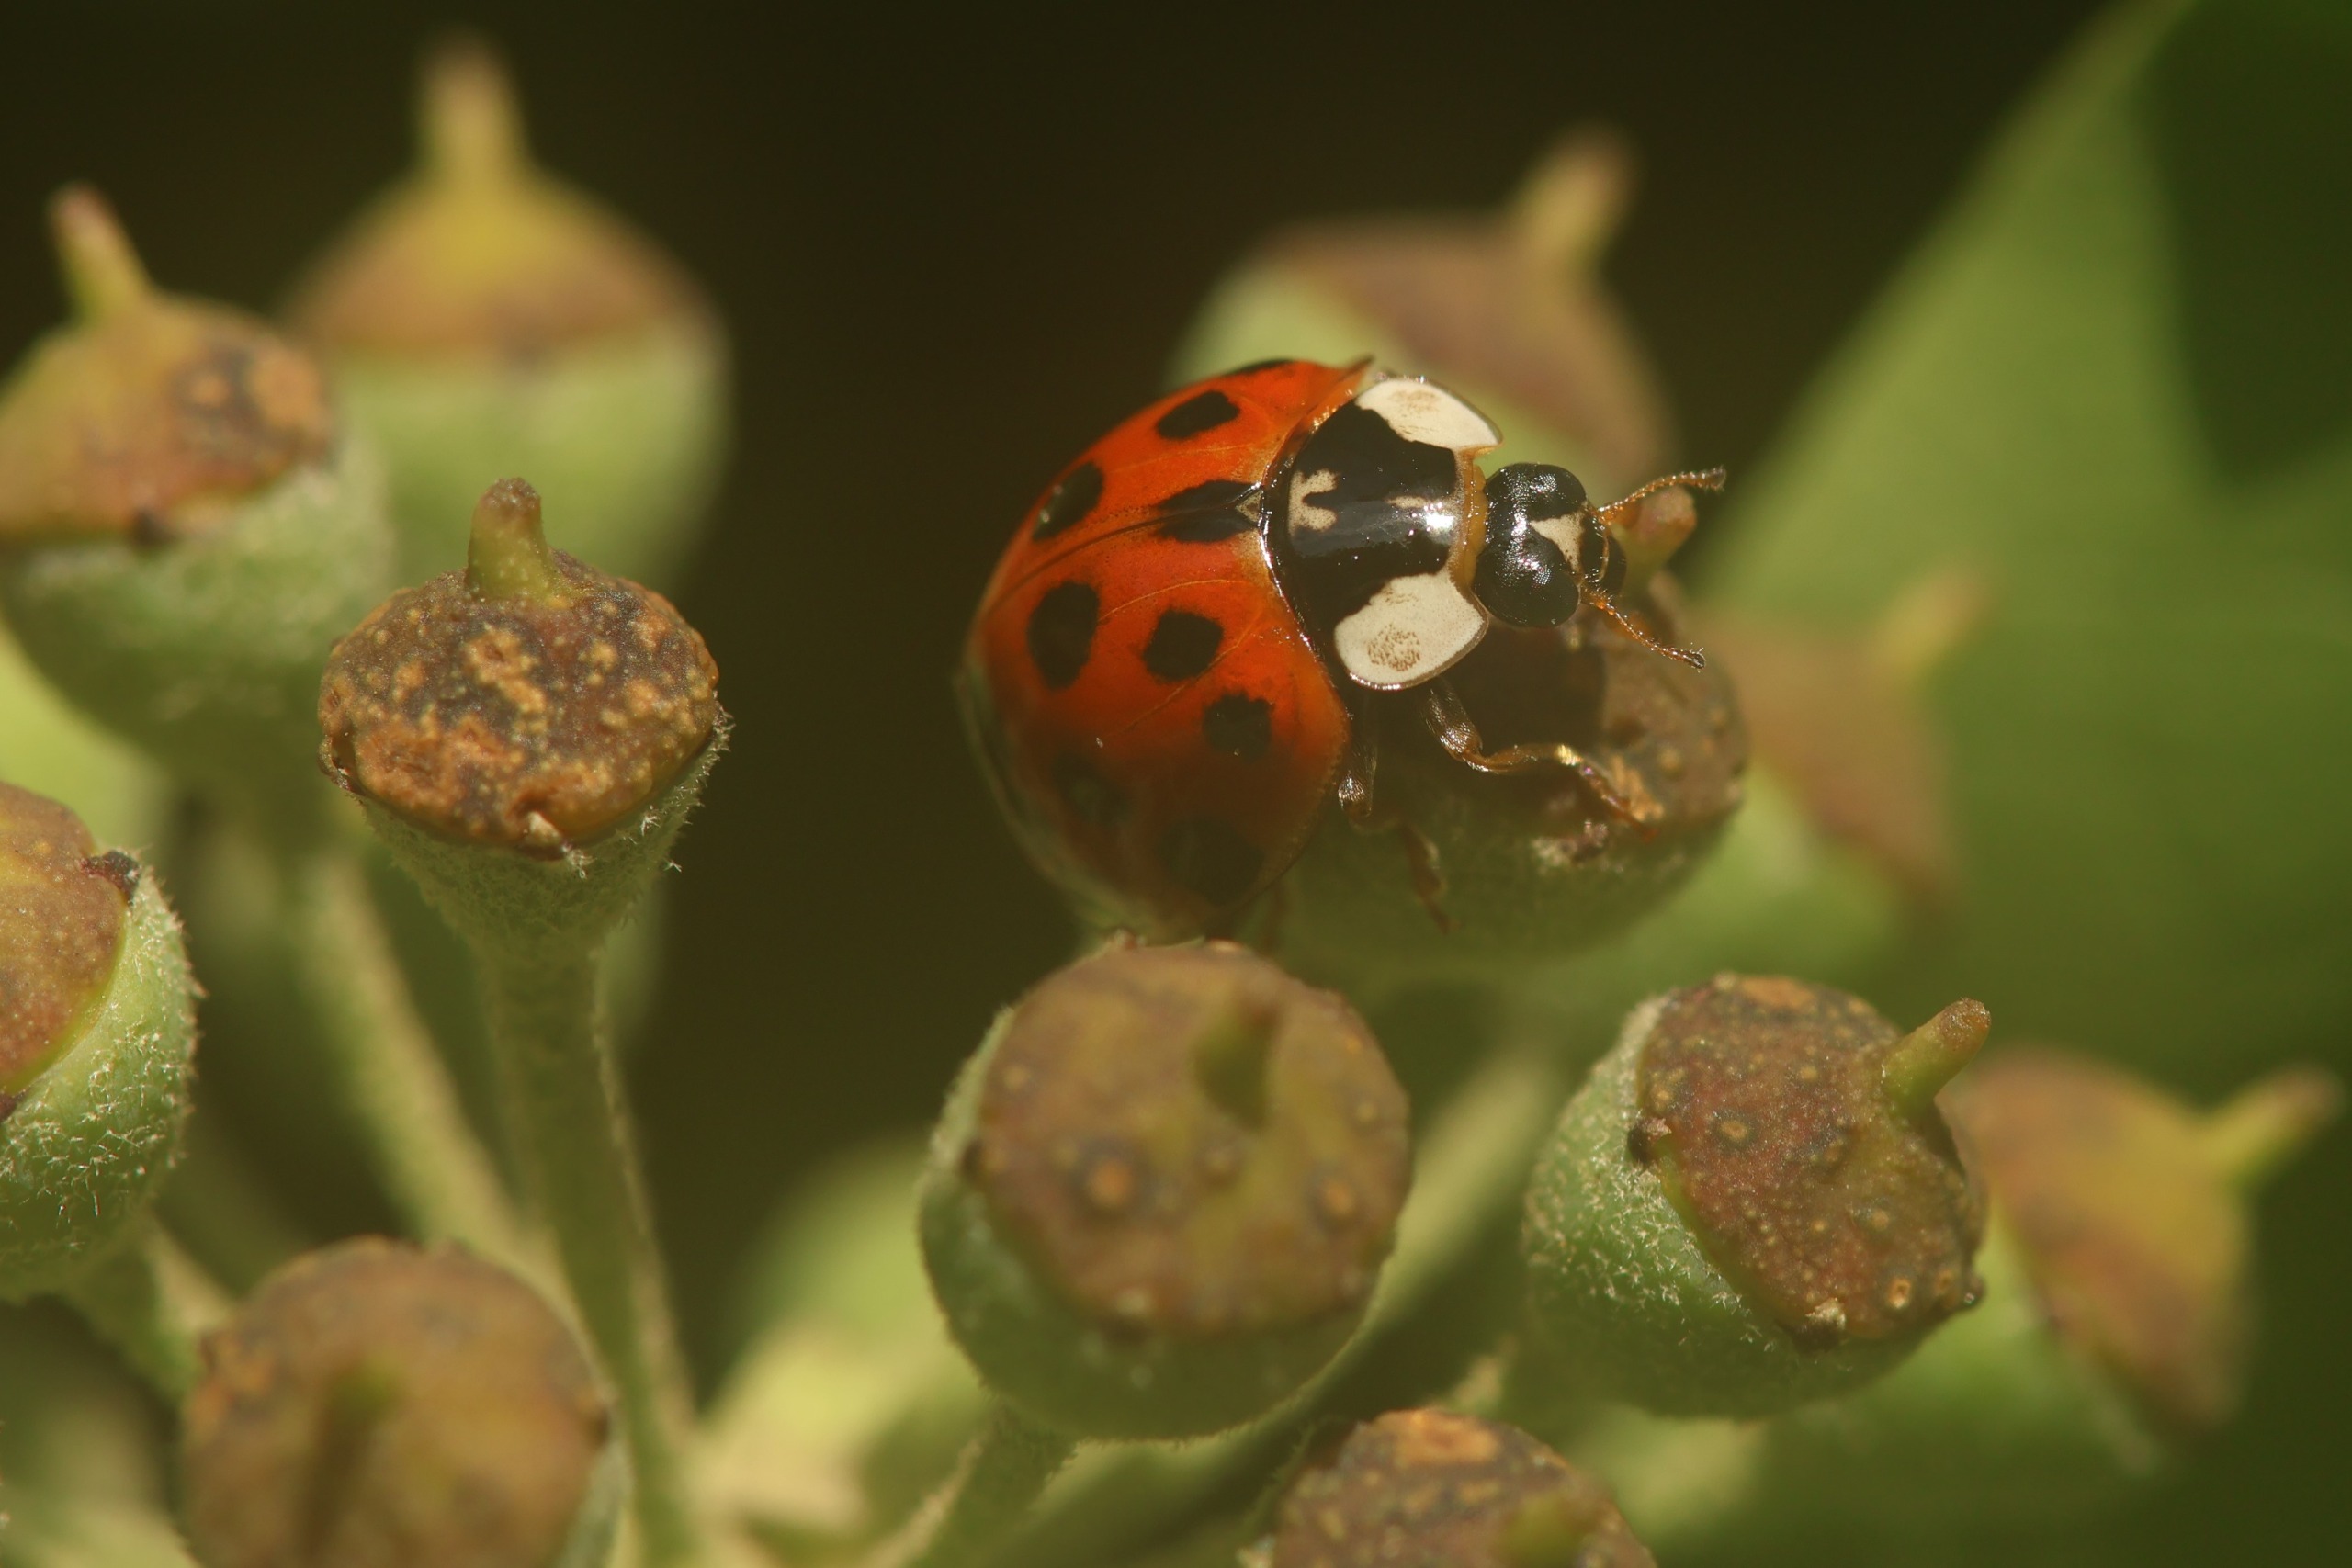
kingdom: Animalia
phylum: Arthropoda
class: Insecta
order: Coleoptera
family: Coccinellidae
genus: Harmonia
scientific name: Harmonia axyridis
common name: Harlekinmariehøne
